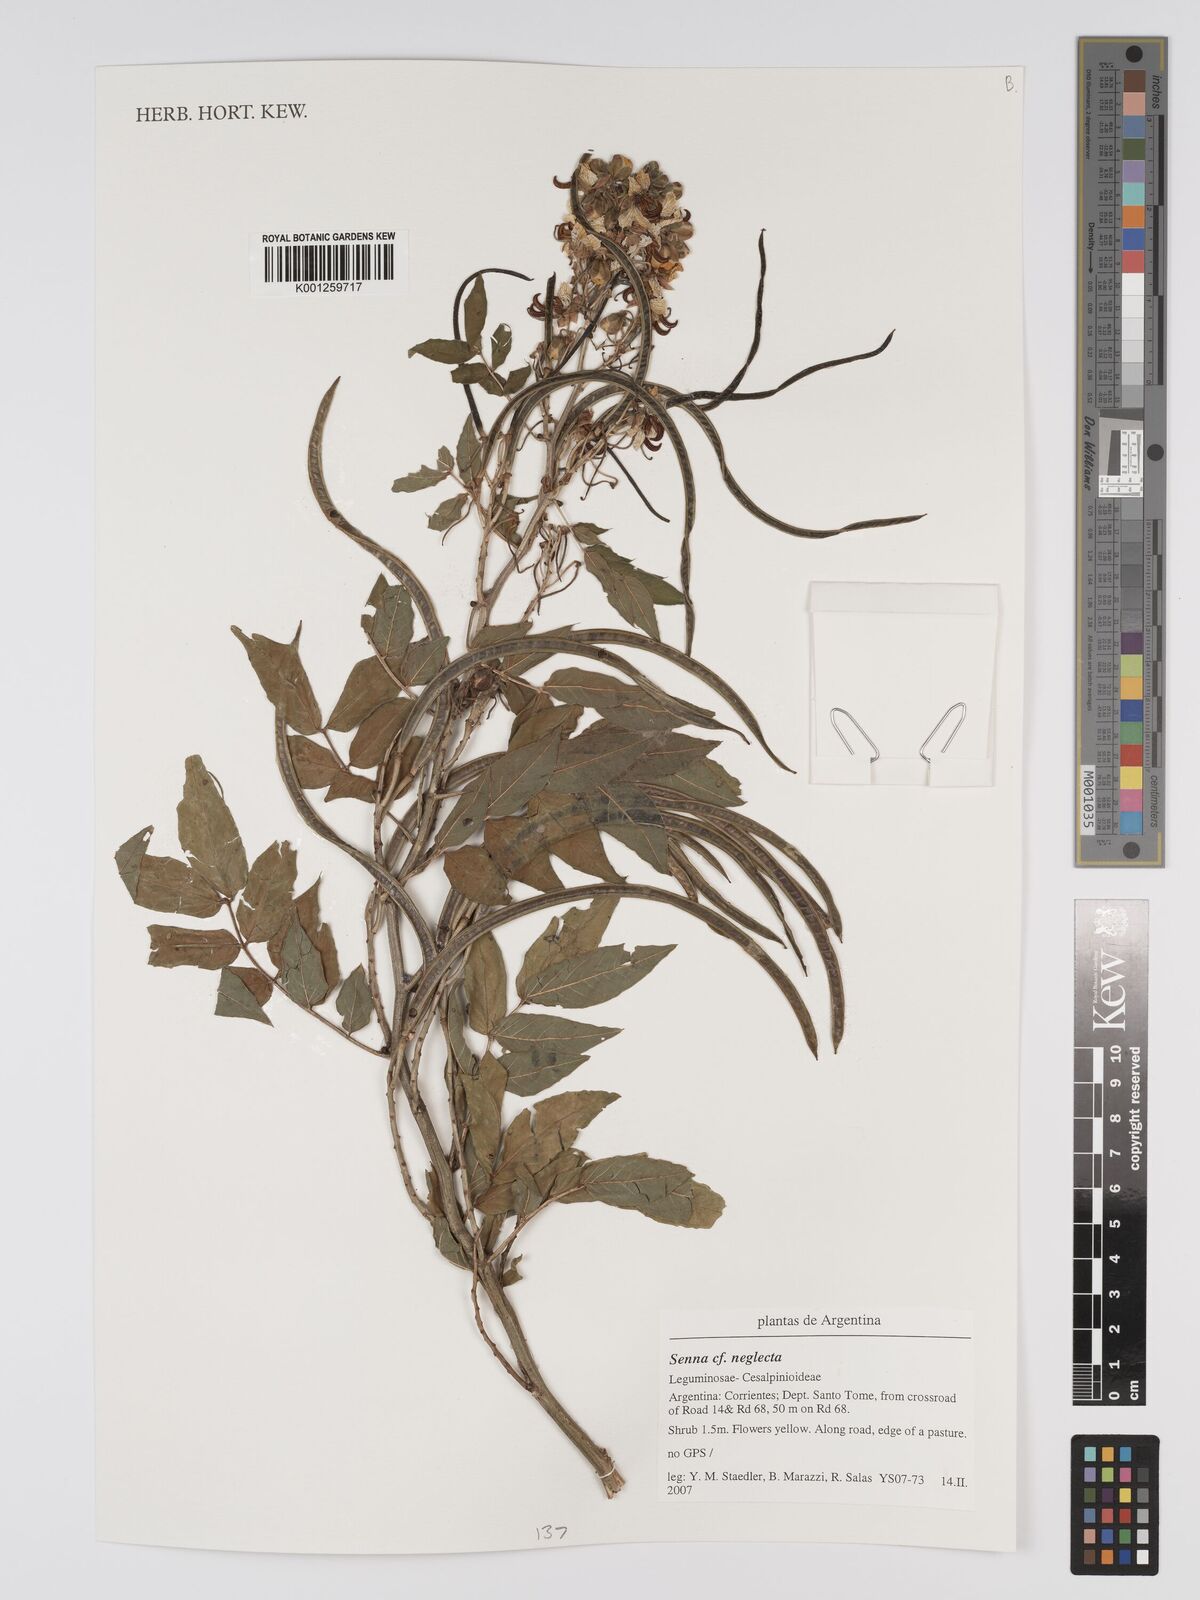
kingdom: Plantae
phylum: Tracheophyta
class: Magnoliopsida
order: Fabales
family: Fabaceae
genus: Senna
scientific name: Senna neglecta
